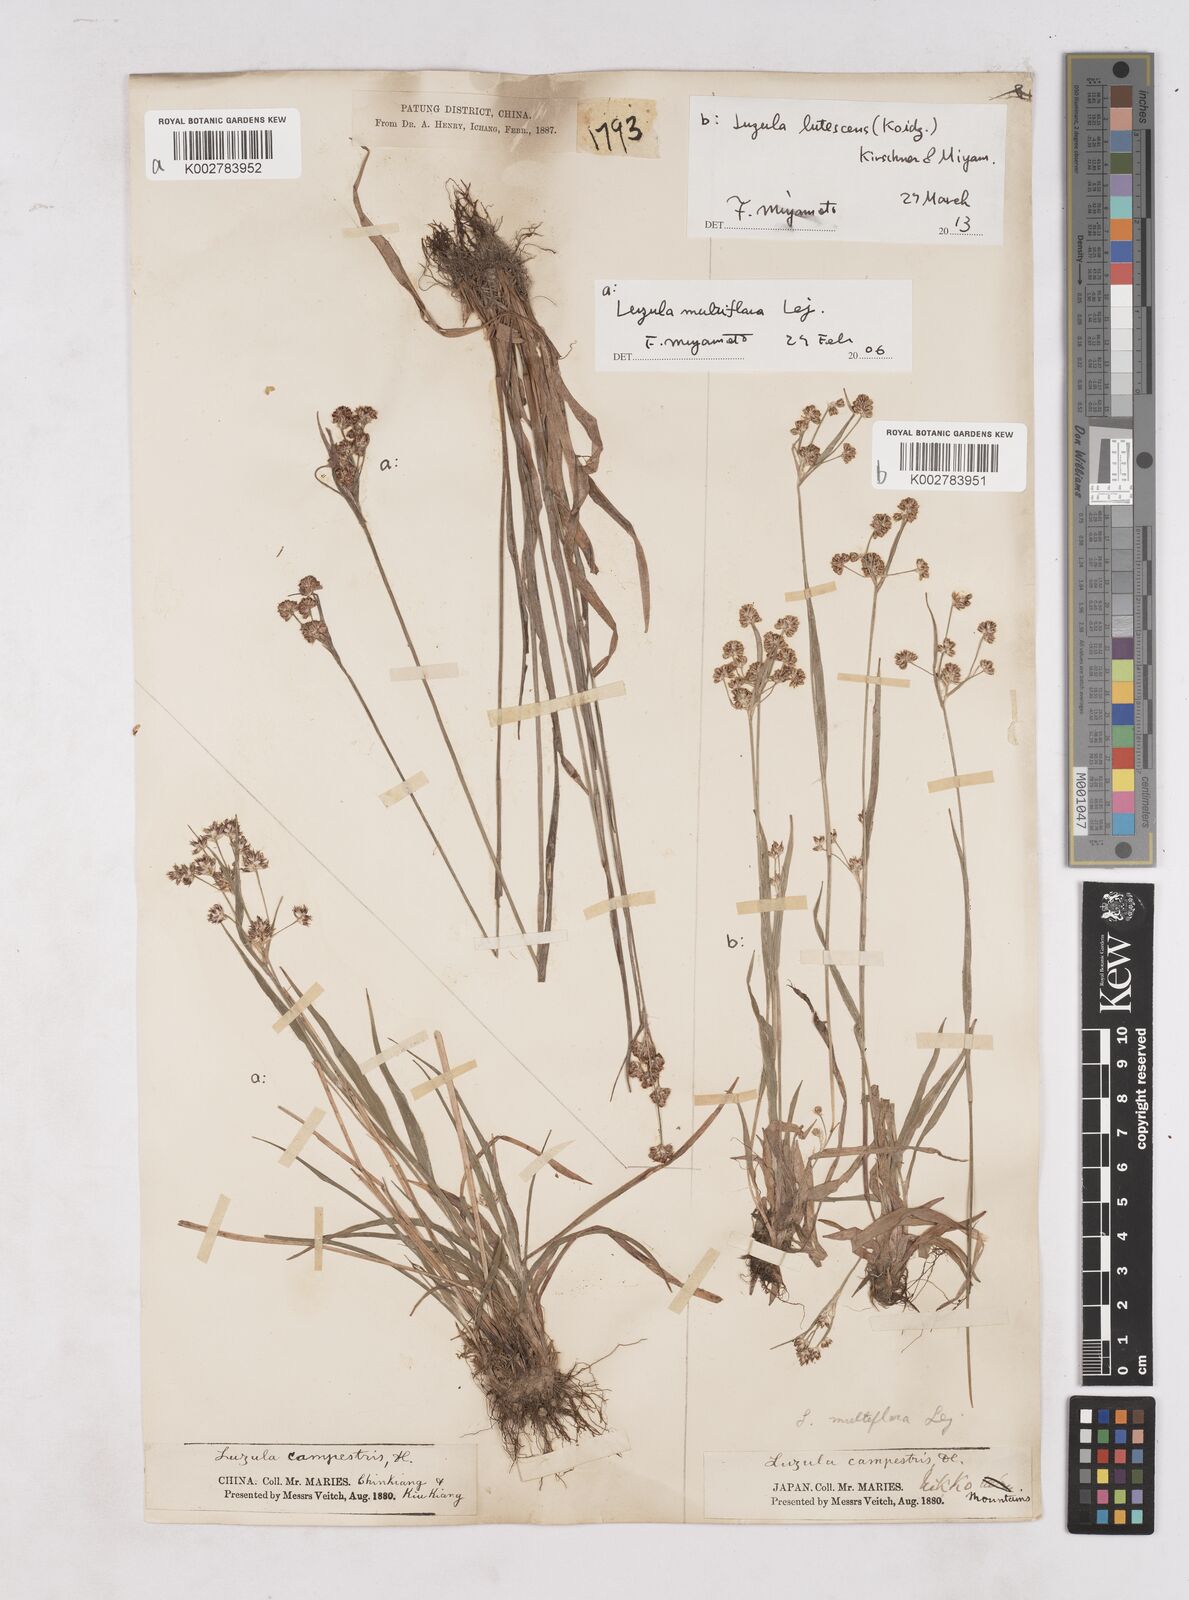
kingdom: Plantae
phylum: Tracheophyta
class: Liliopsida
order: Poales
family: Juncaceae
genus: Luzula
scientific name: Luzula campestris
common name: Field wood-rush
